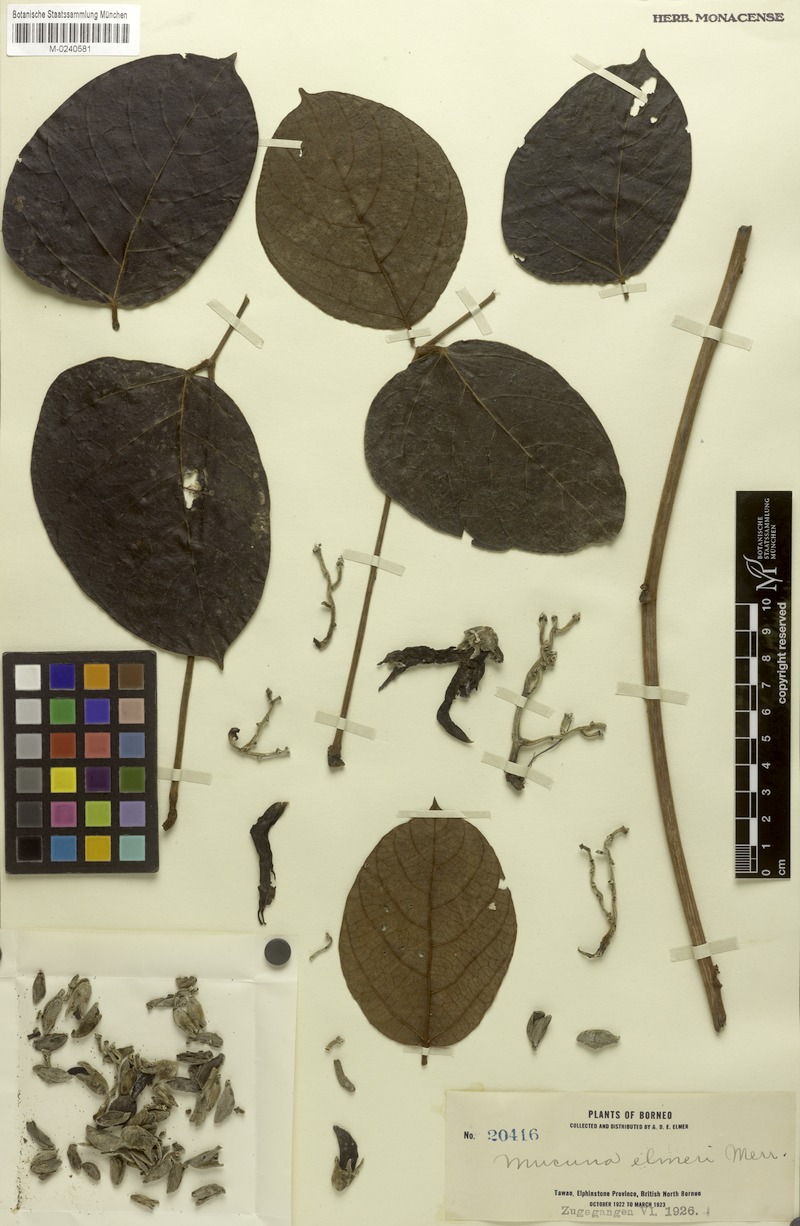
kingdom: Plantae
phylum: Tracheophyta
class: Magnoliopsida
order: Fabales
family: Fabaceae
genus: Mucuna
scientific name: Mucuna elmeri
